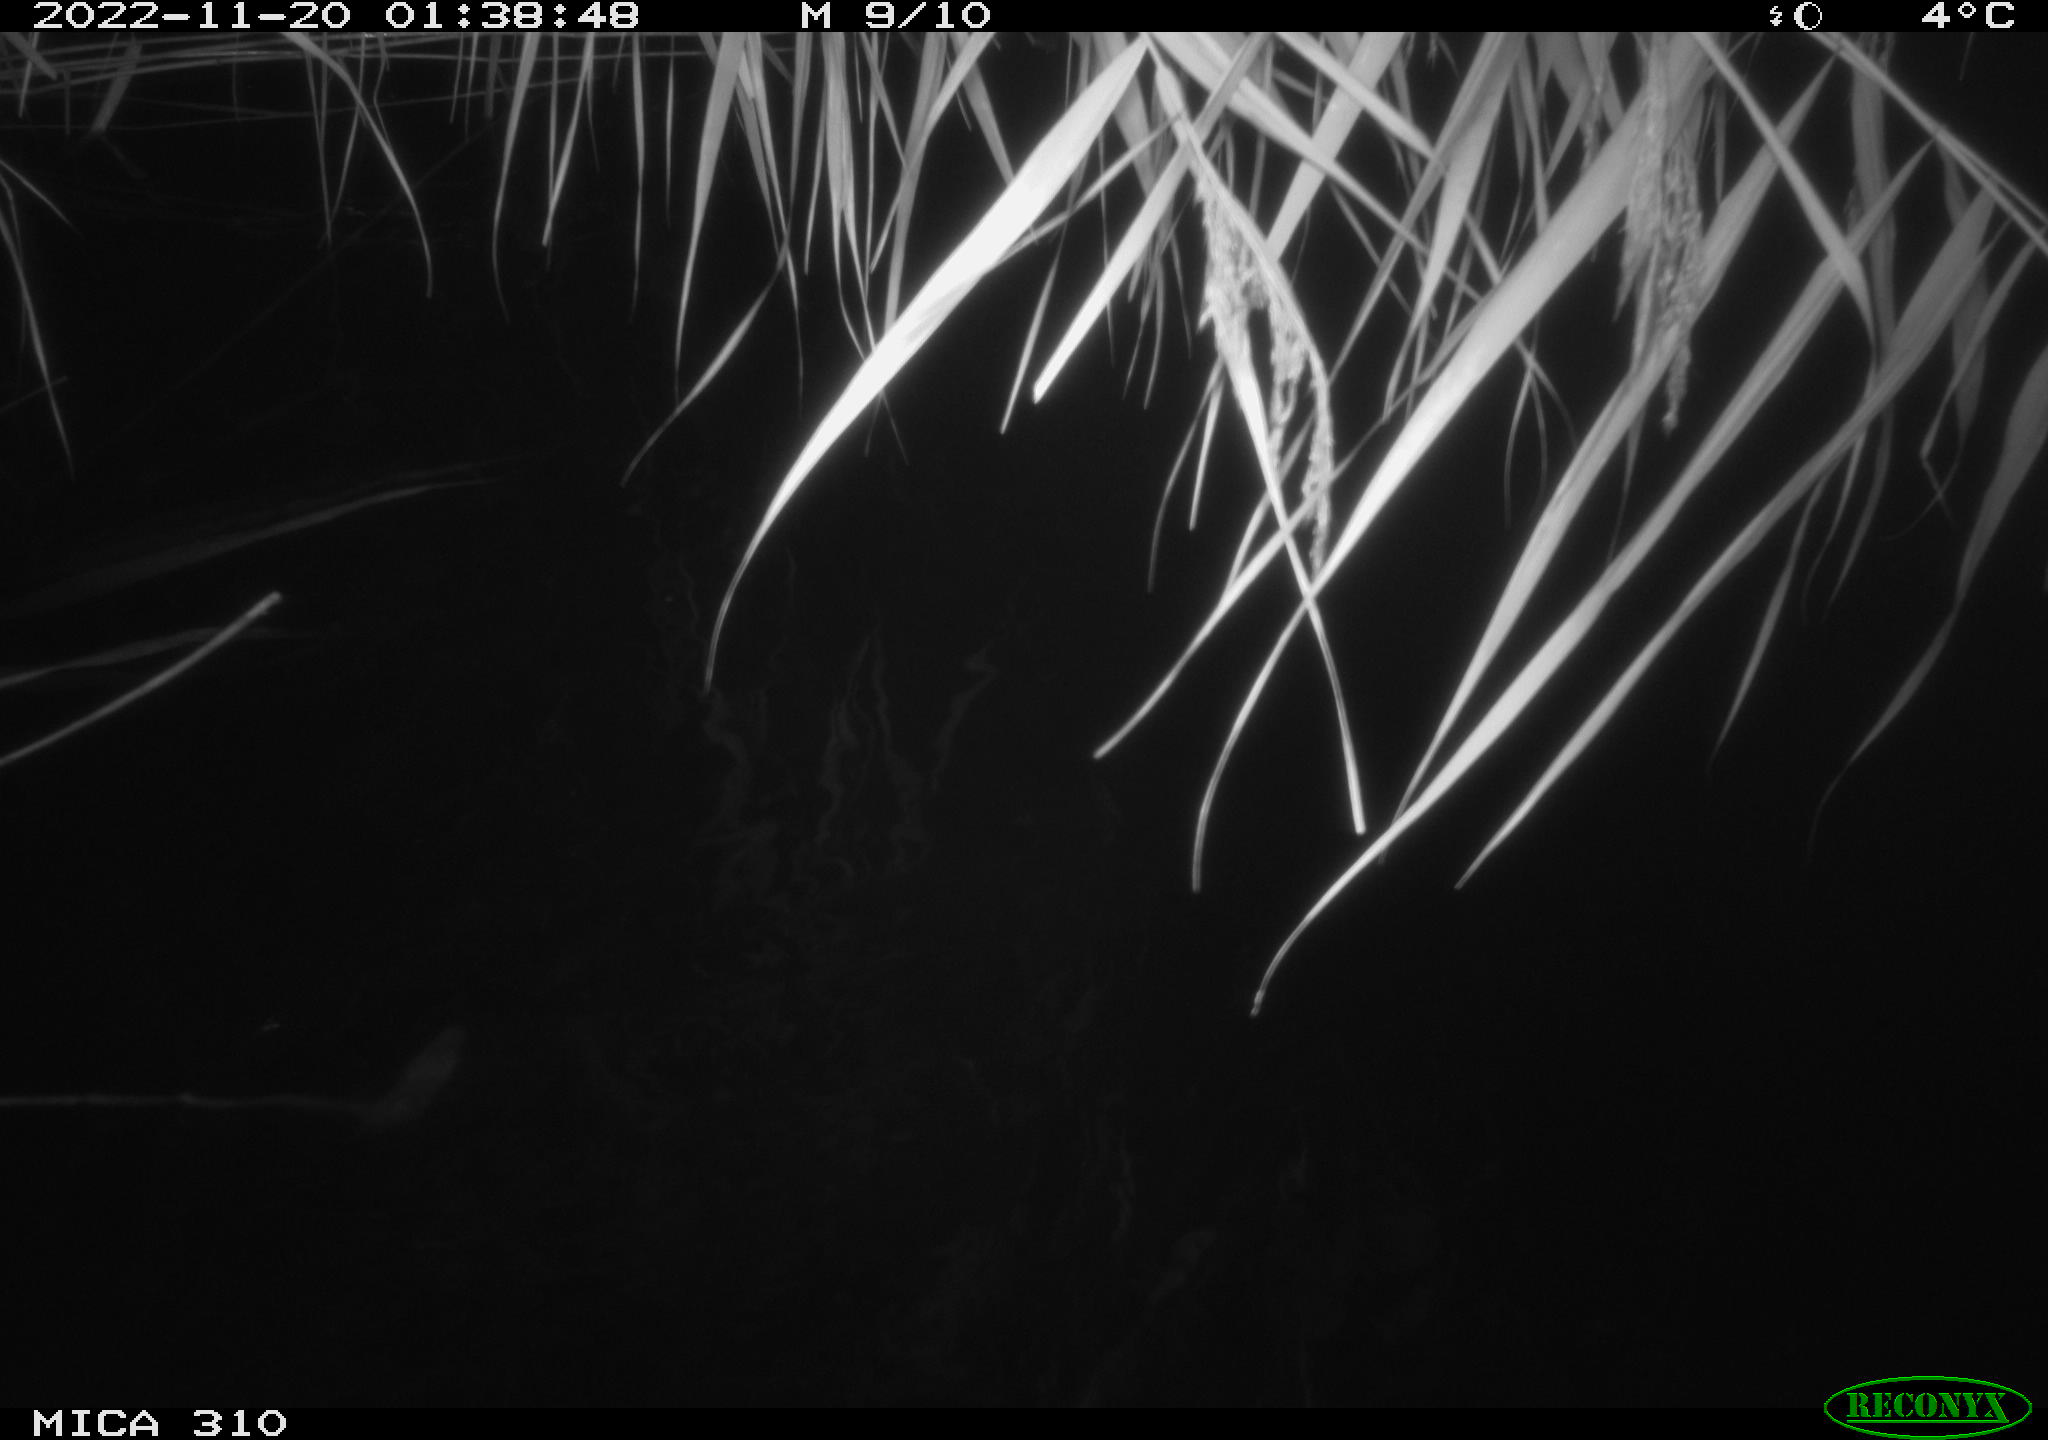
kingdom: Animalia
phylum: Chordata
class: Mammalia
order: Rodentia
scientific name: Rodentia
